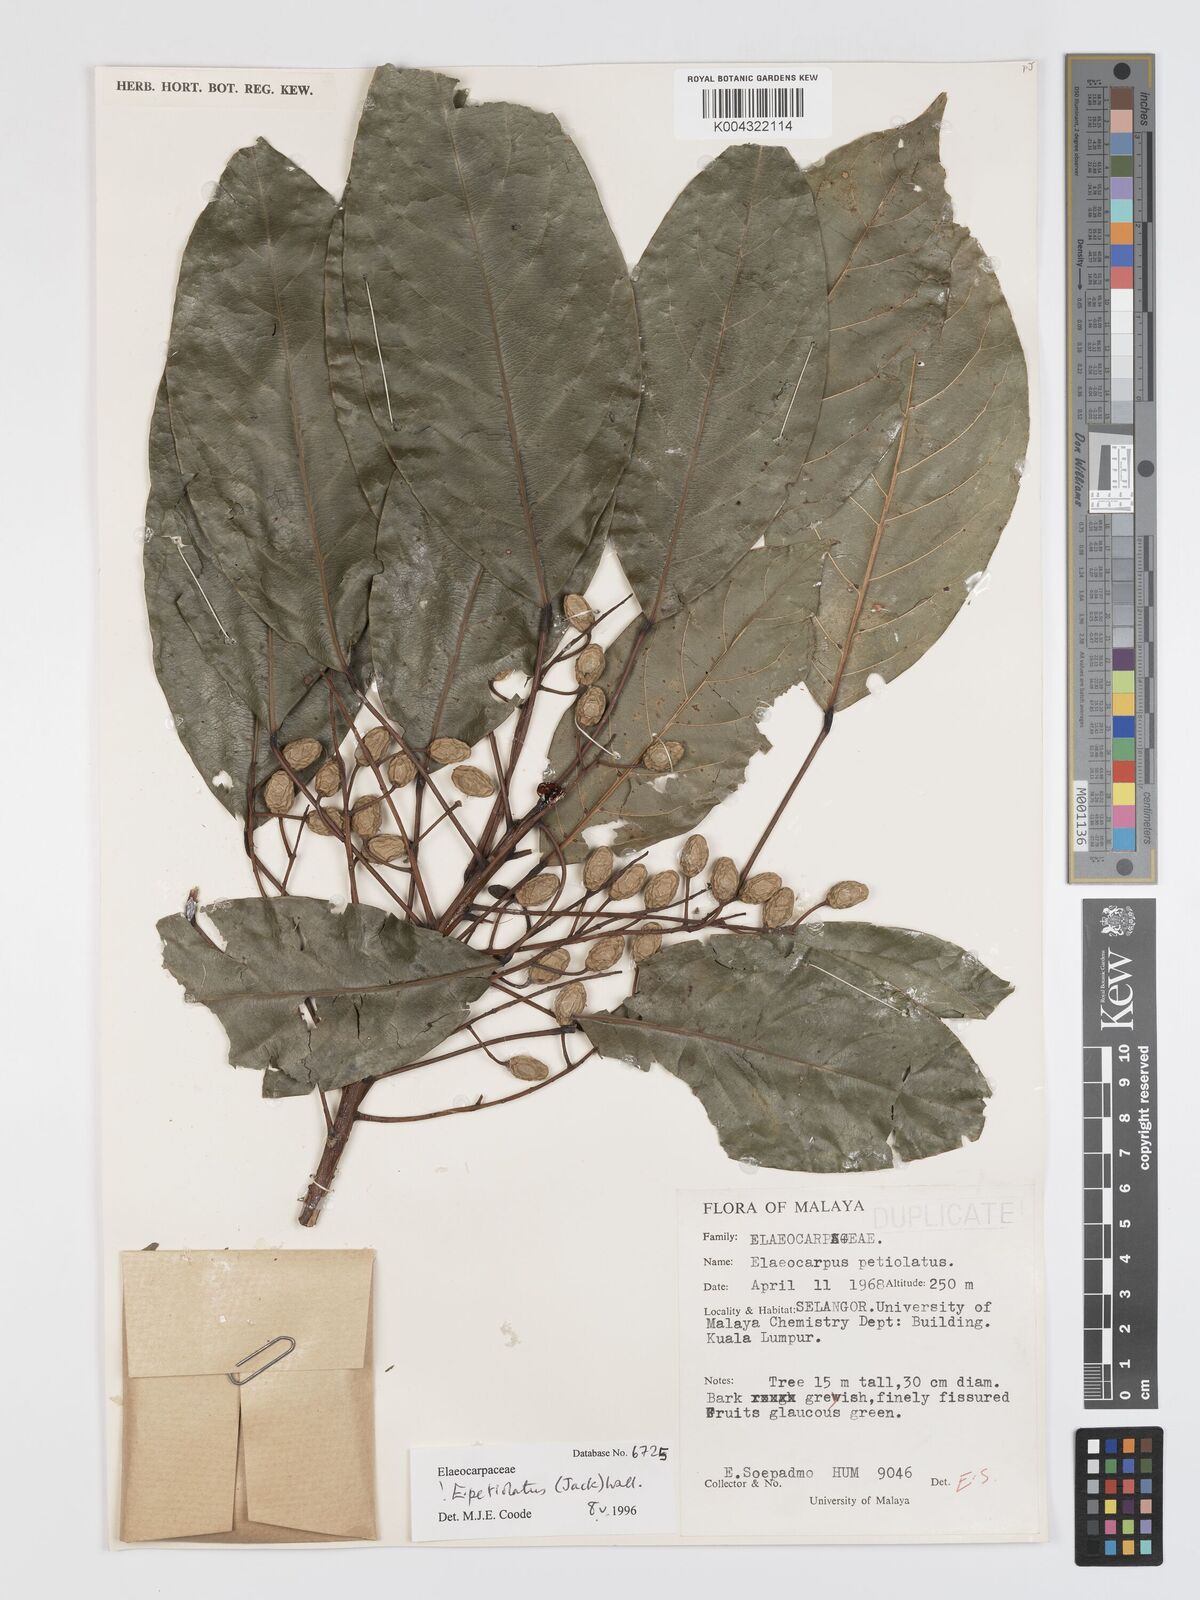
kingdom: Plantae
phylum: Tracheophyta
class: Magnoliopsida
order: Oxalidales
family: Elaeocarpaceae
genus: Elaeocarpus
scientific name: Elaeocarpus petiolatus
